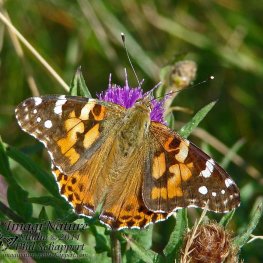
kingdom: Animalia
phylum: Arthropoda
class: Insecta
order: Lepidoptera
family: Nymphalidae
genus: Vanessa
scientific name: Vanessa cardui
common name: Painted Lady
